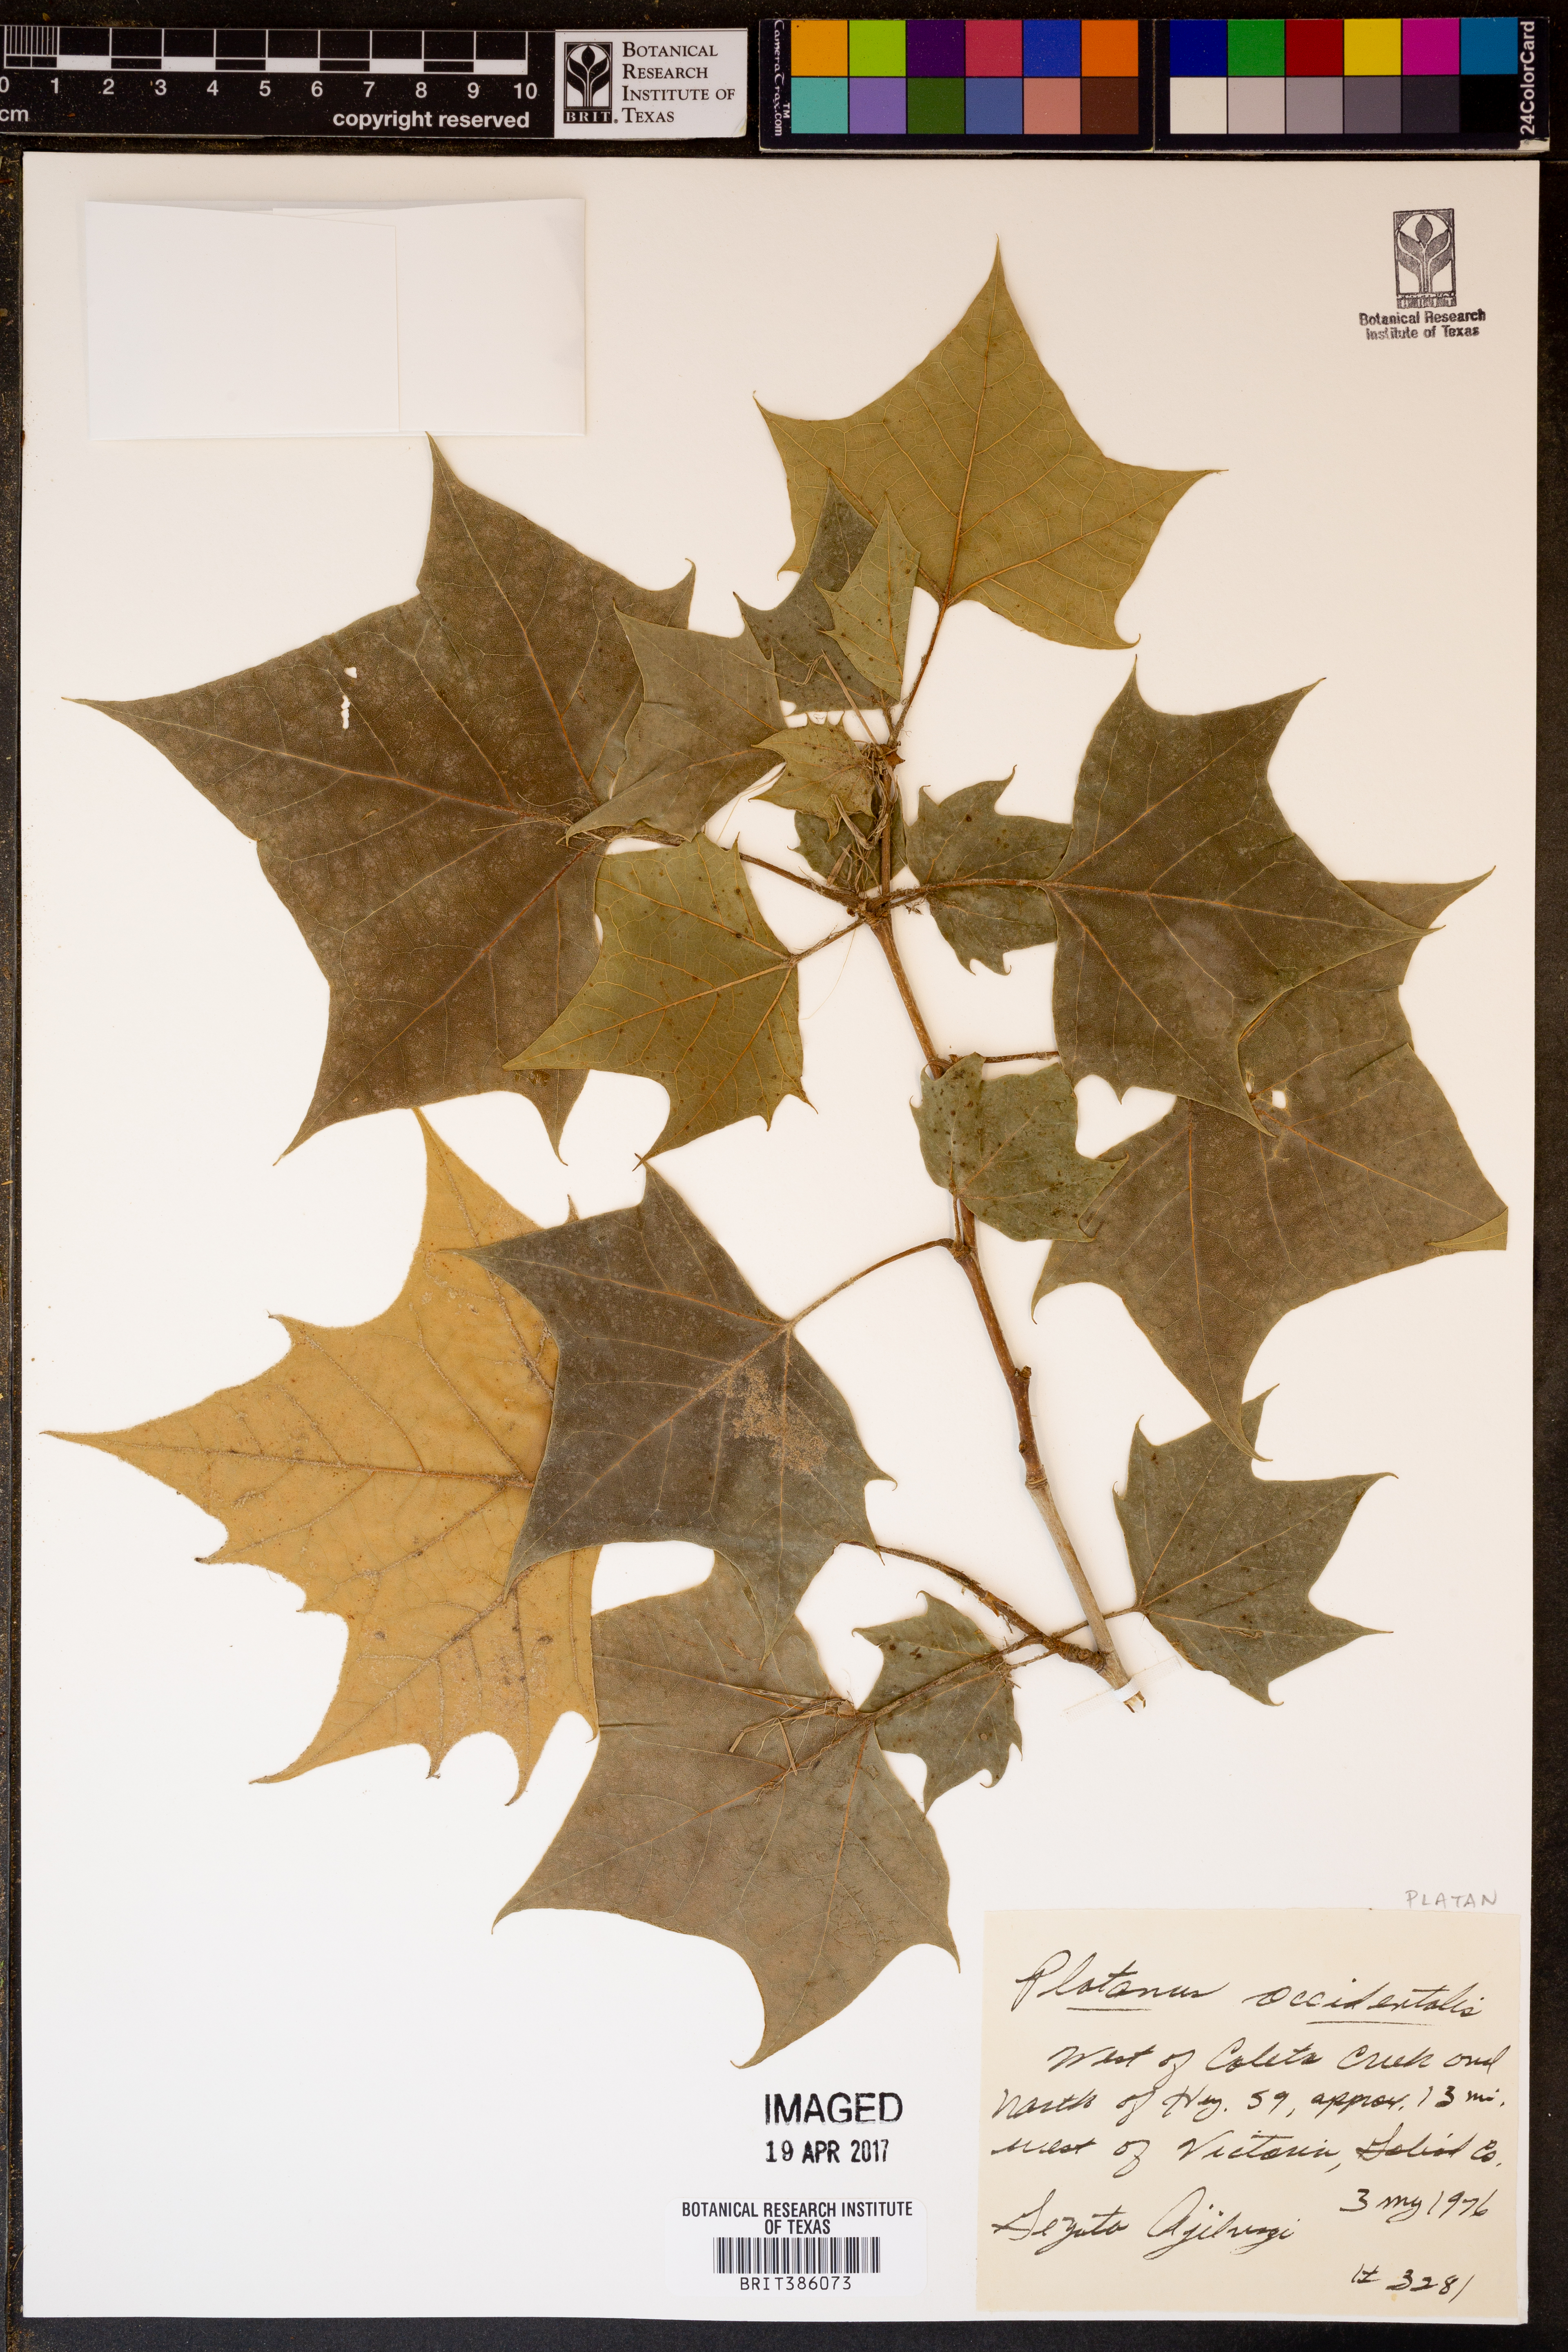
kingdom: Plantae
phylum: Tracheophyta
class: Magnoliopsida
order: Proteales
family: Platanaceae
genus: Platanus
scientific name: Platanus occidentalis
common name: American sycamore
